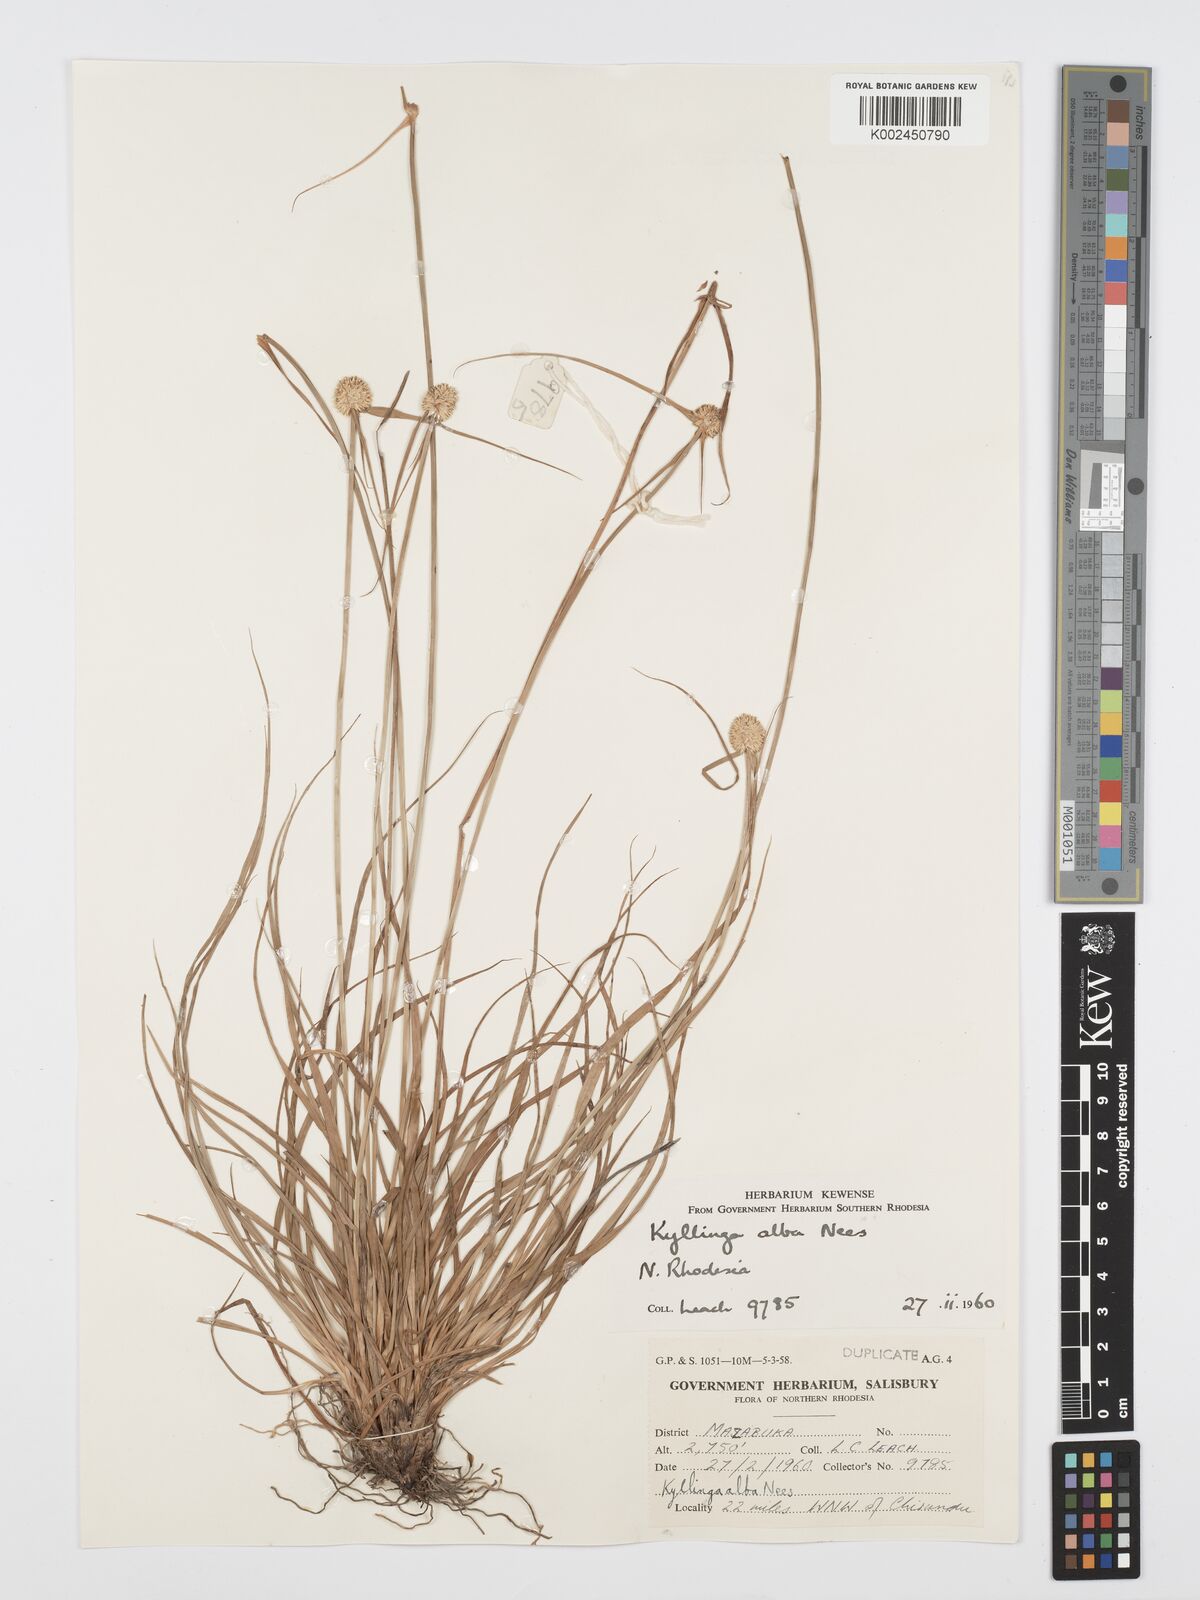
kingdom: Plantae
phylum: Tracheophyta
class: Liliopsida
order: Poales
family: Cyperaceae
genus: Cyperus
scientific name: Cyperus
